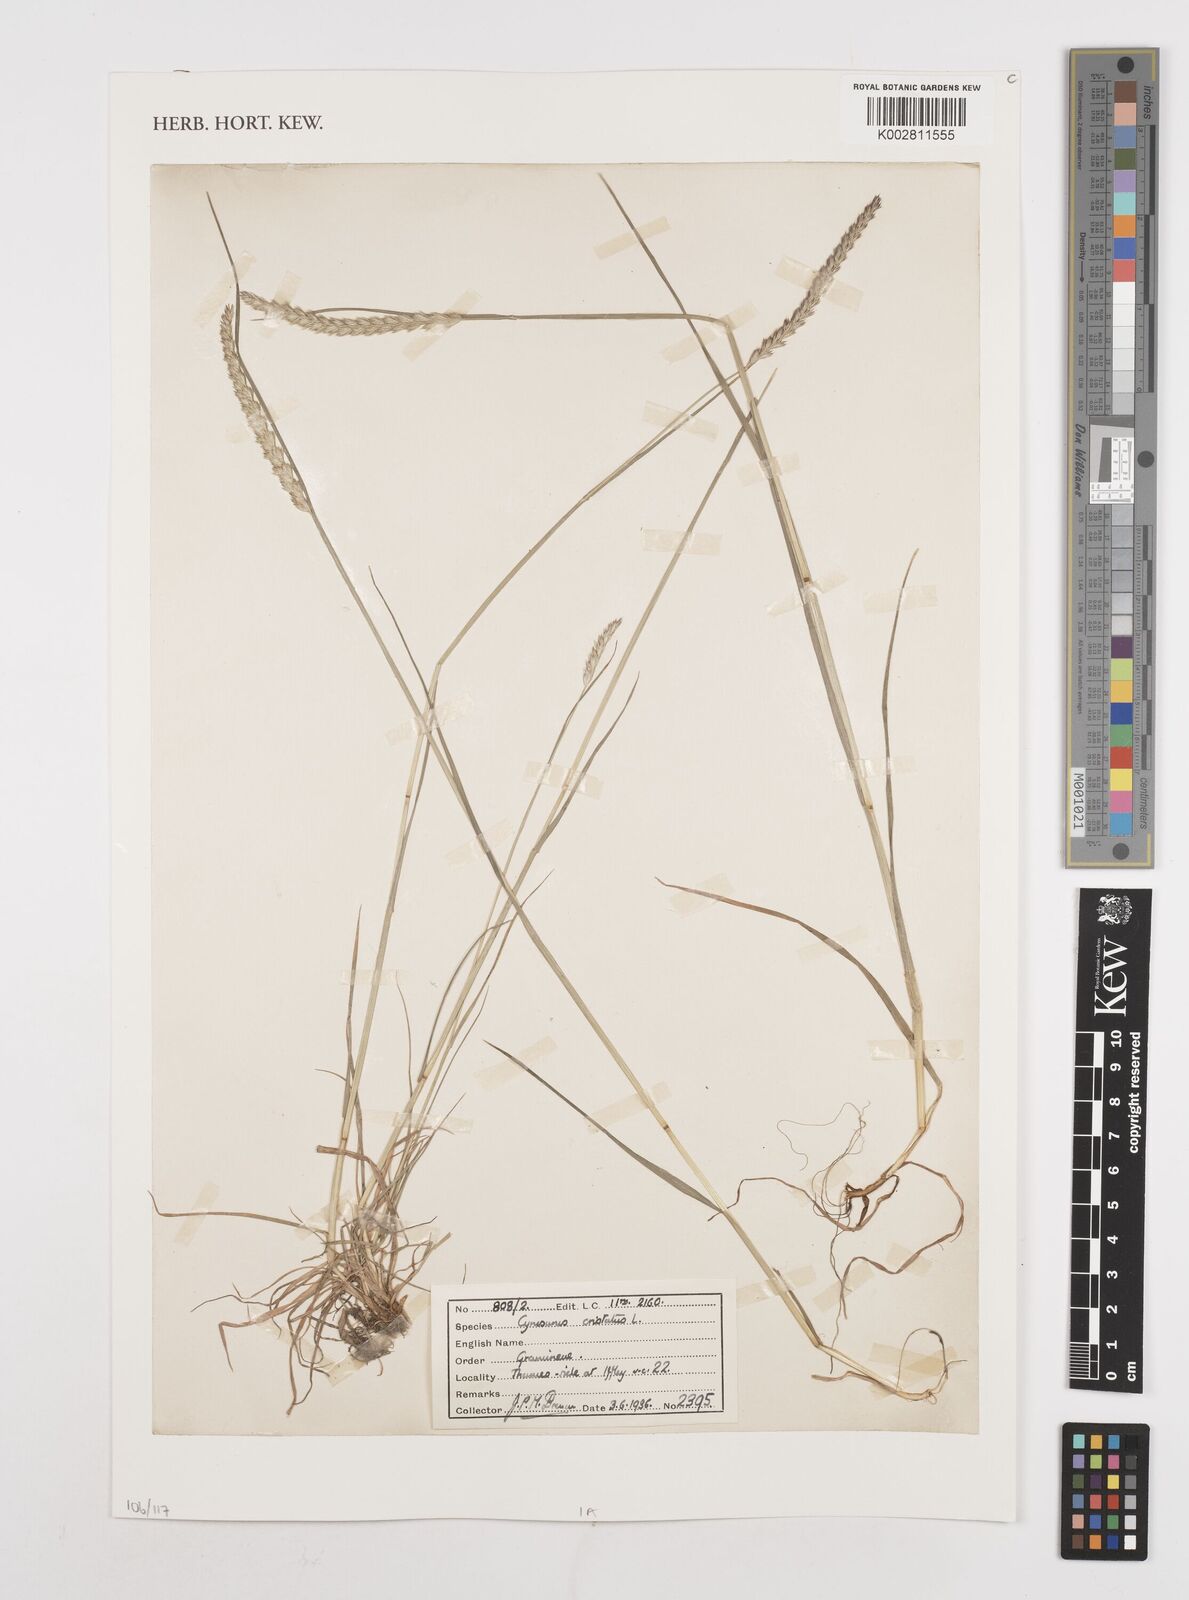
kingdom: Plantae
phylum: Tracheophyta
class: Liliopsida
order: Poales
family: Poaceae
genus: Cynosurus
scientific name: Cynosurus cristatus
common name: Crested dog's-tail
